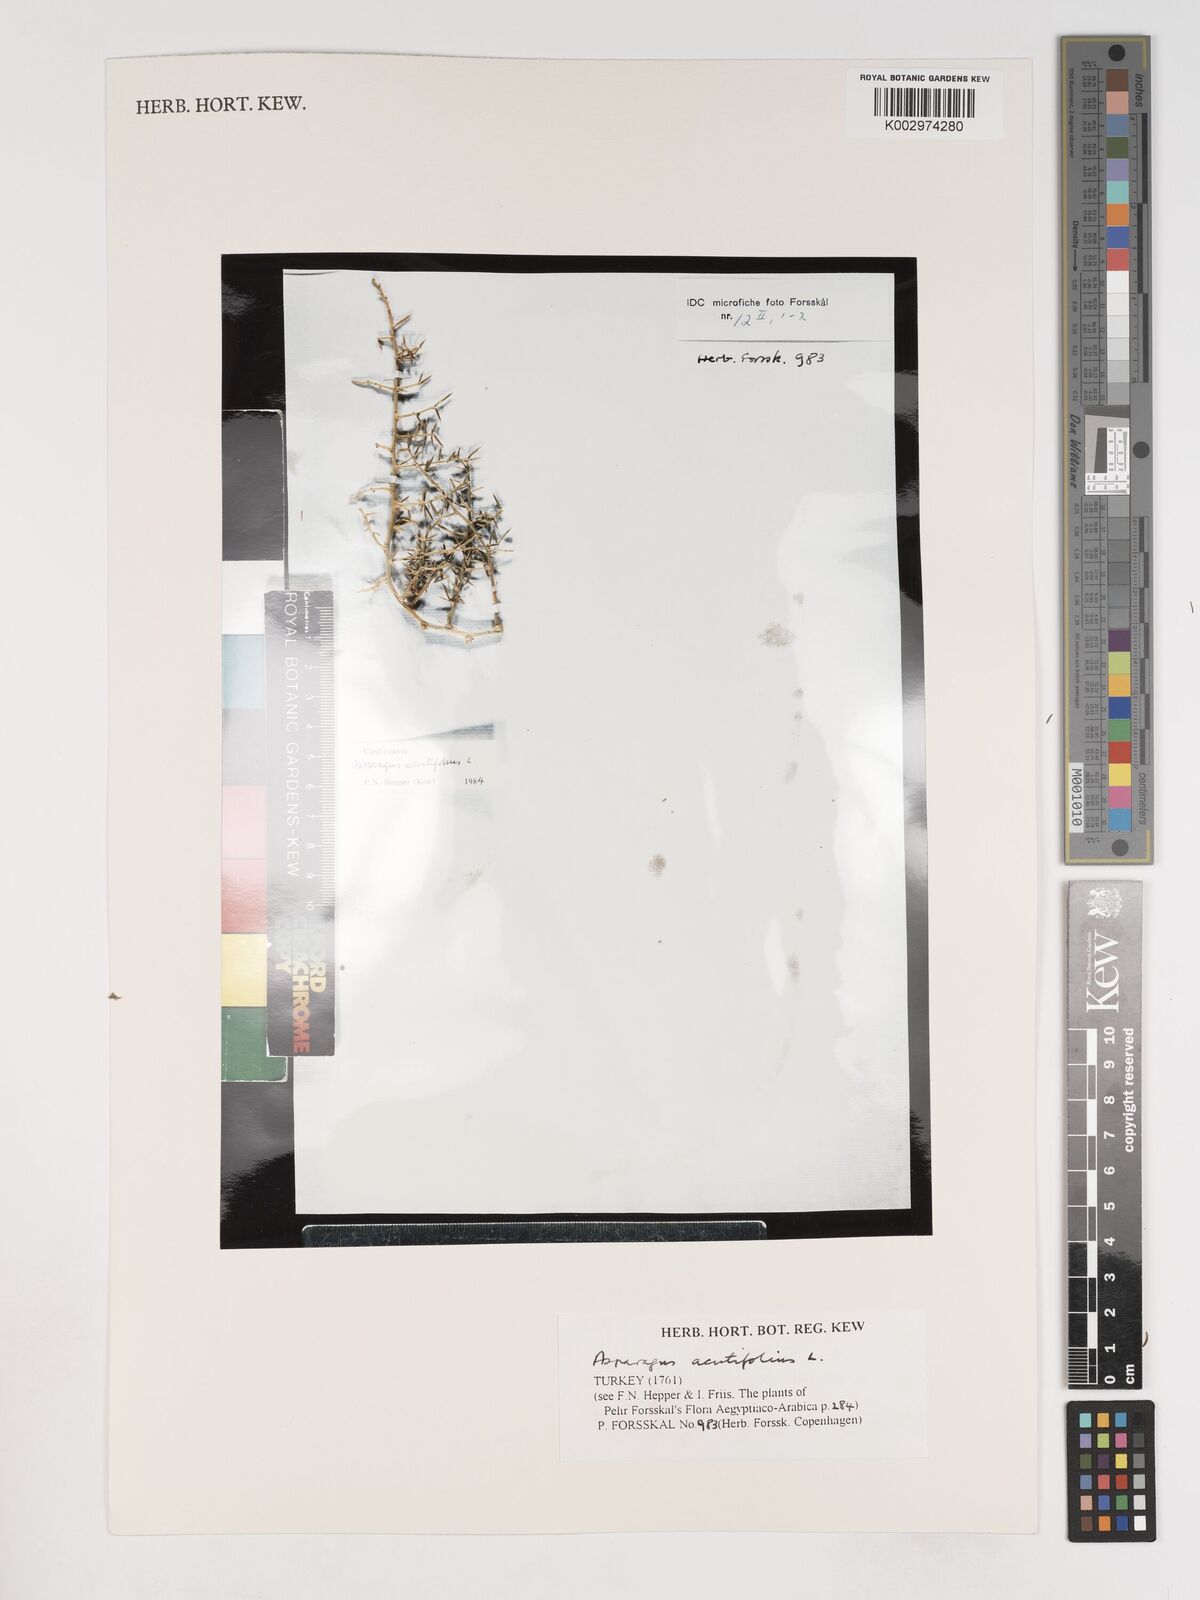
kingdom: Plantae
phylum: Tracheophyta
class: Liliopsida
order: Asparagales
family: Asparagaceae
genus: Asparagus
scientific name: Asparagus acutifolius
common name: Wild asparagus
